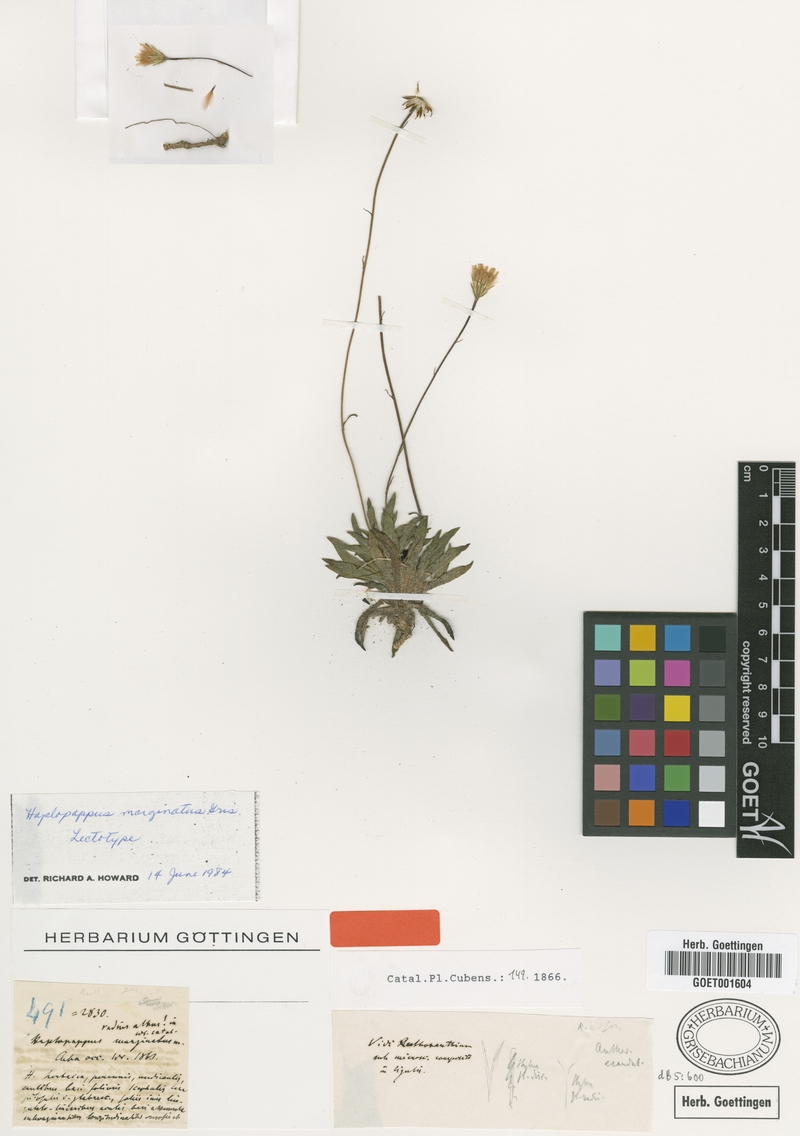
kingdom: Plantae
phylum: Tracheophyta
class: Magnoliopsida
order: Asterales
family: Asteraceae
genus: Neja
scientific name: Neja marginata
